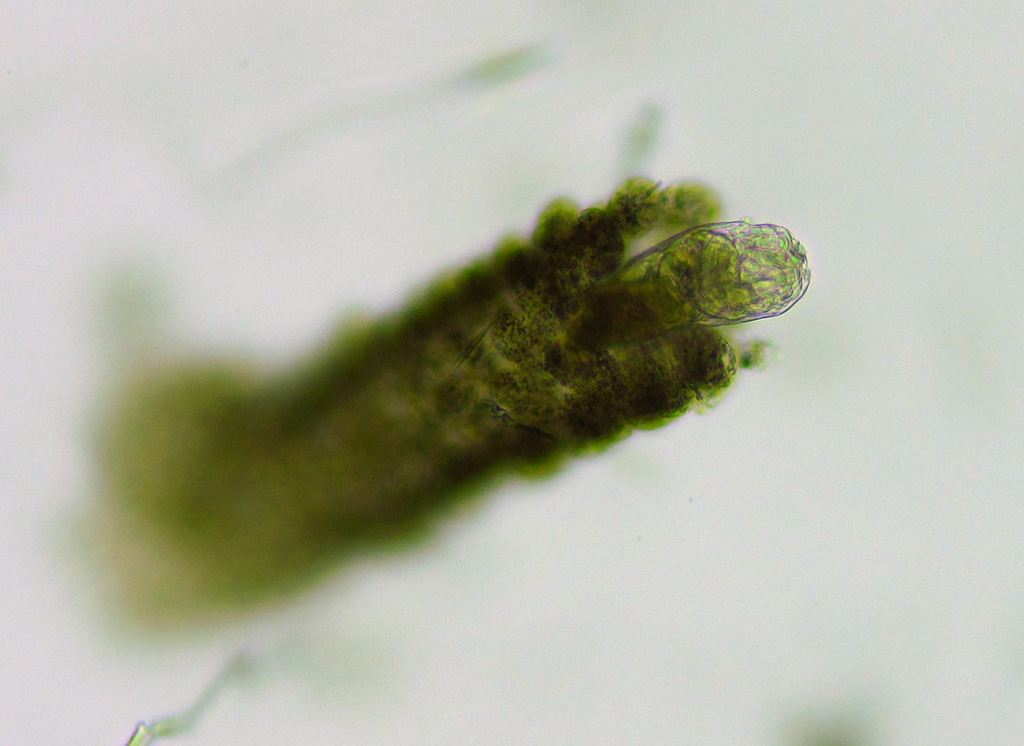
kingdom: Animalia
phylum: Rotifera
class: Eurotatoria
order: Flosculariaceae
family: Flosculariidae
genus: Floscularia
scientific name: Floscularia ringens
